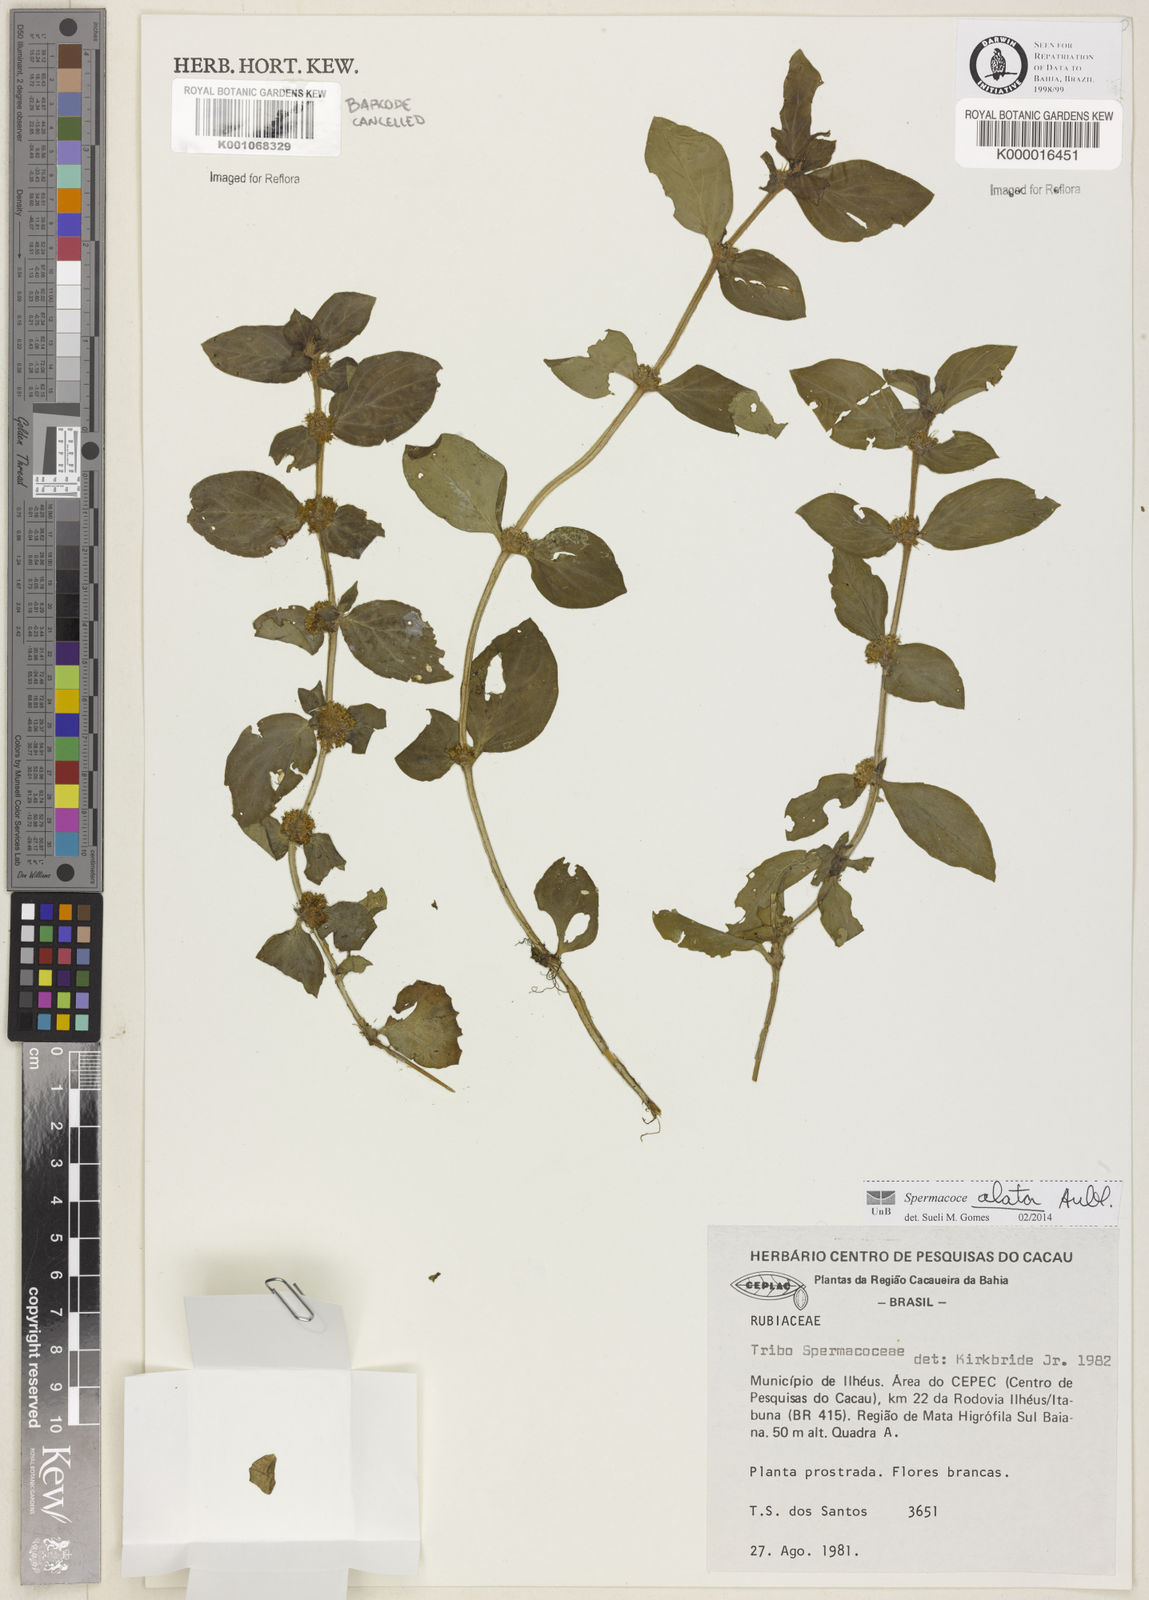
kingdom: Plantae
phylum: Tracheophyta
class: Magnoliopsida
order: Gentianales
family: Rubiaceae
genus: Spermacoce
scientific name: Spermacoce alata
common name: Winged false buttonweed
